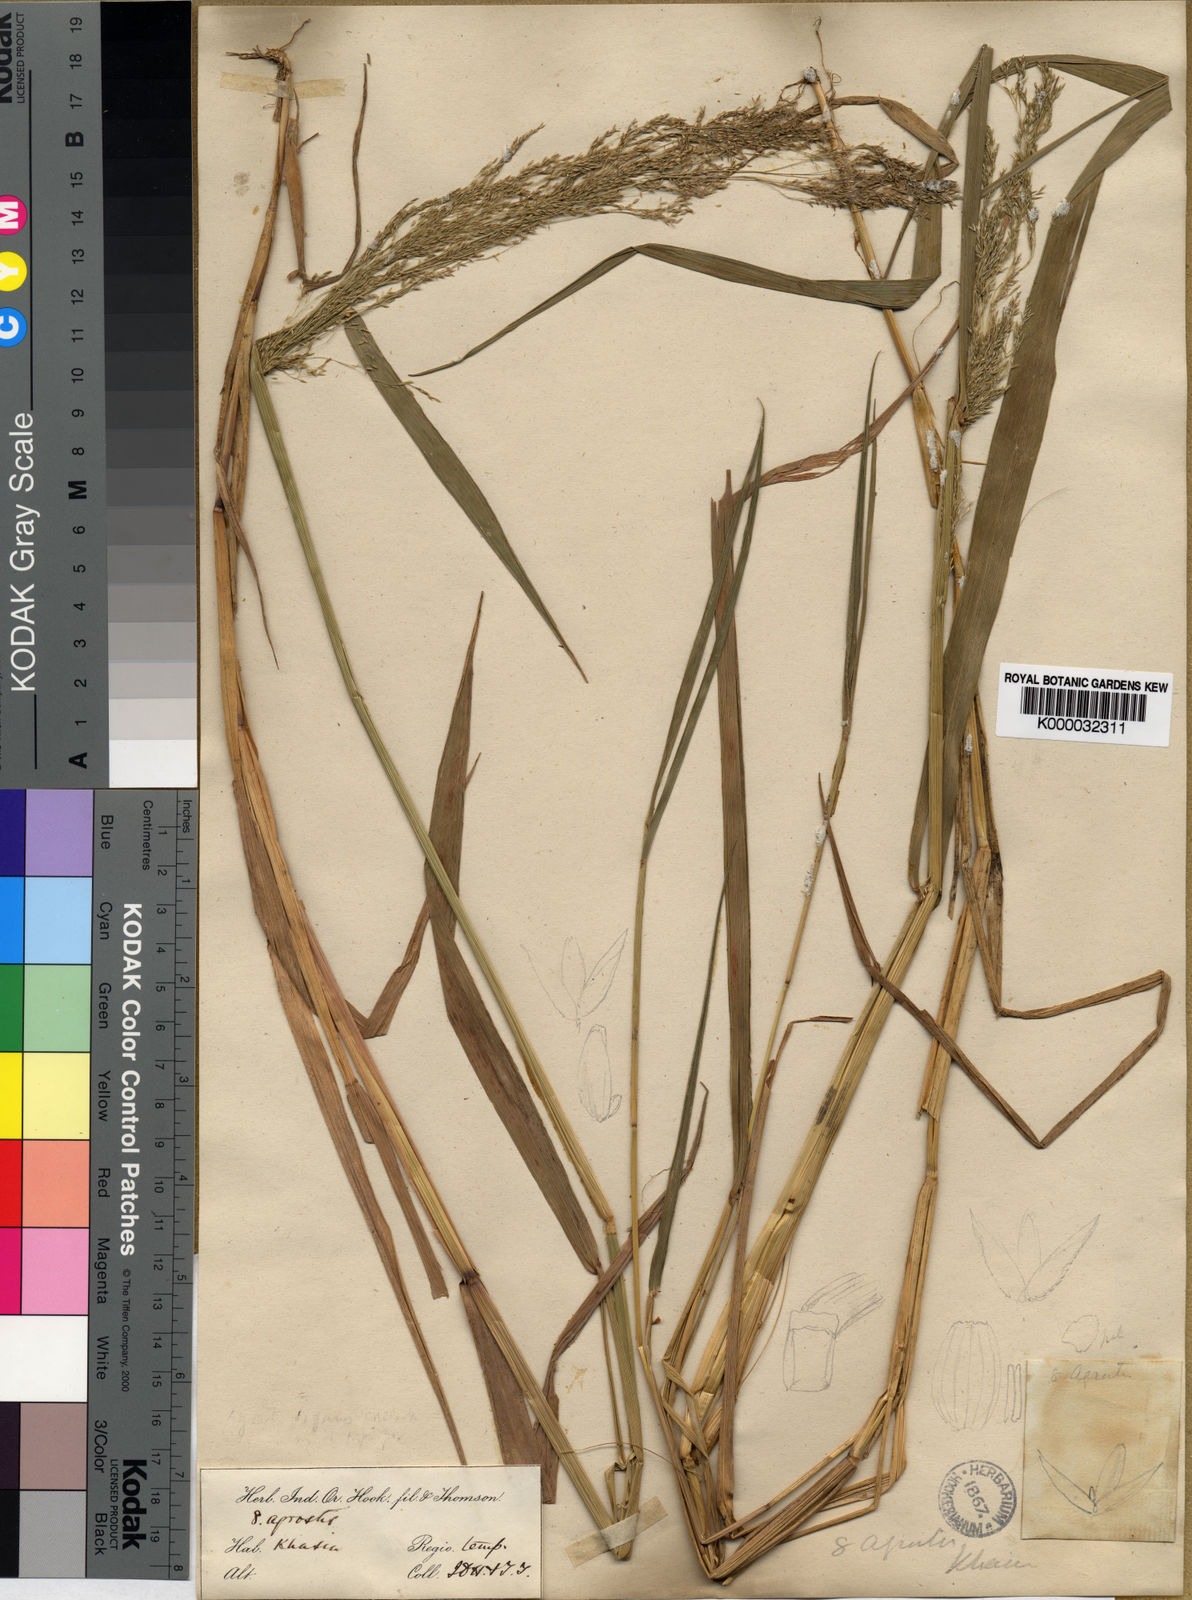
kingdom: Plantae
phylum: Tracheophyta
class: Liliopsida
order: Poales
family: Poaceae
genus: Agrostis
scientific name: Agrostis micrantha
